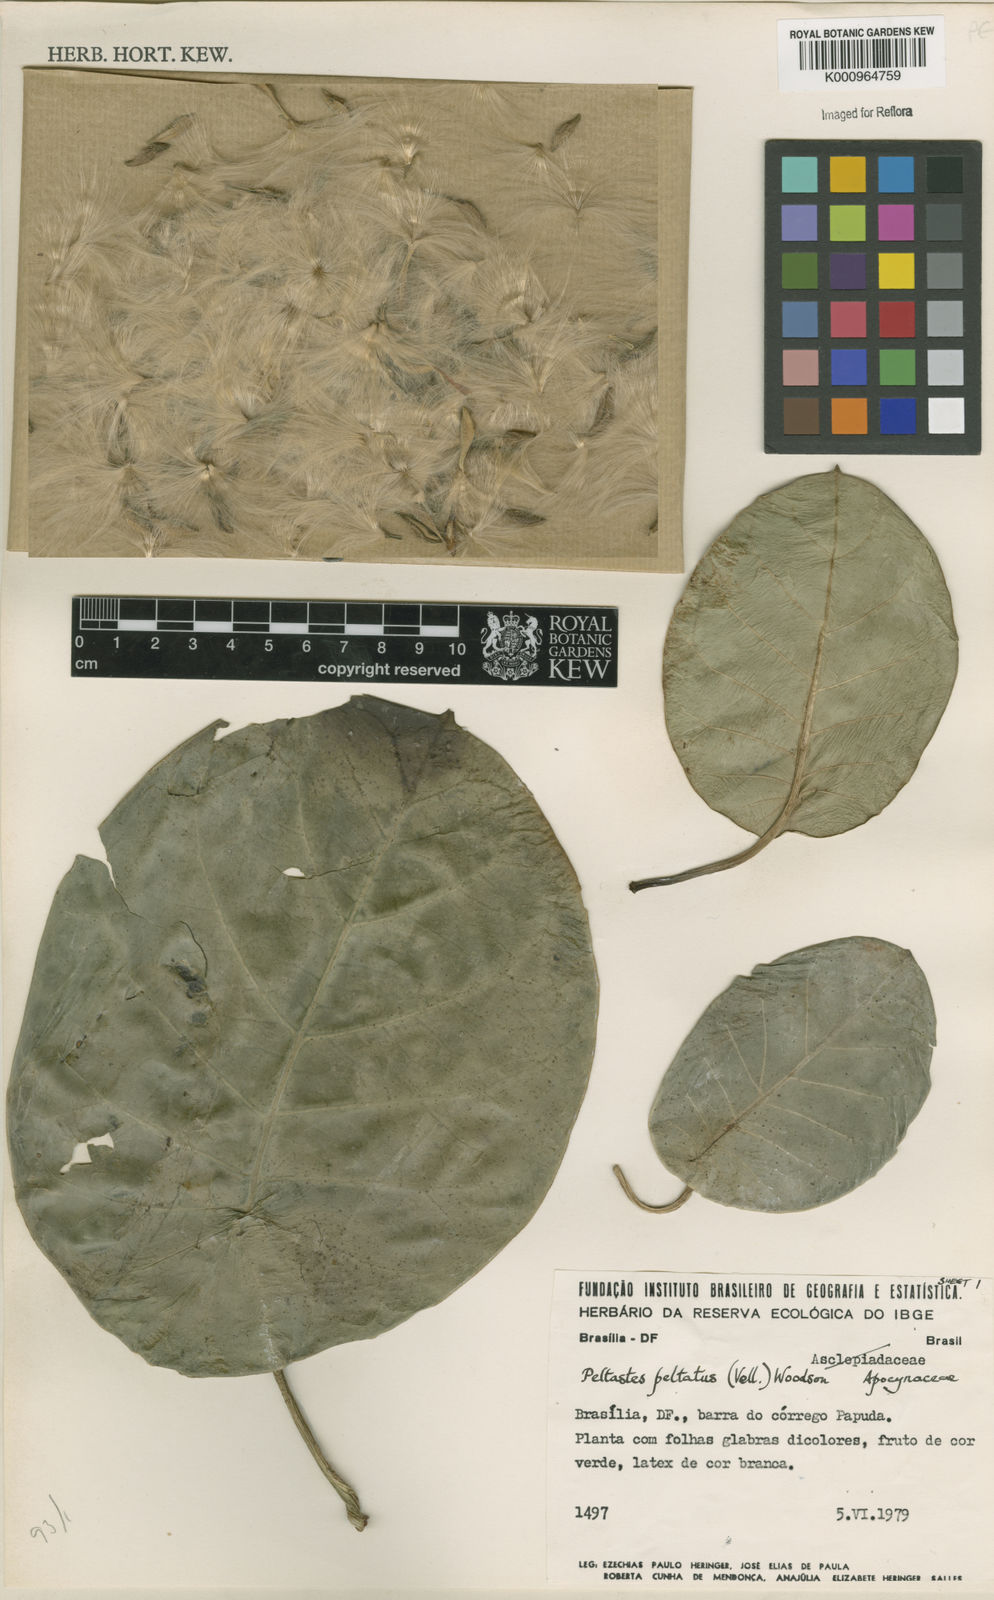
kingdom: Plantae
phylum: Tracheophyta
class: Magnoliopsida
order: Gentianales
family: Apocynaceae
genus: Macropharynx
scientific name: Macropharynx peltata
